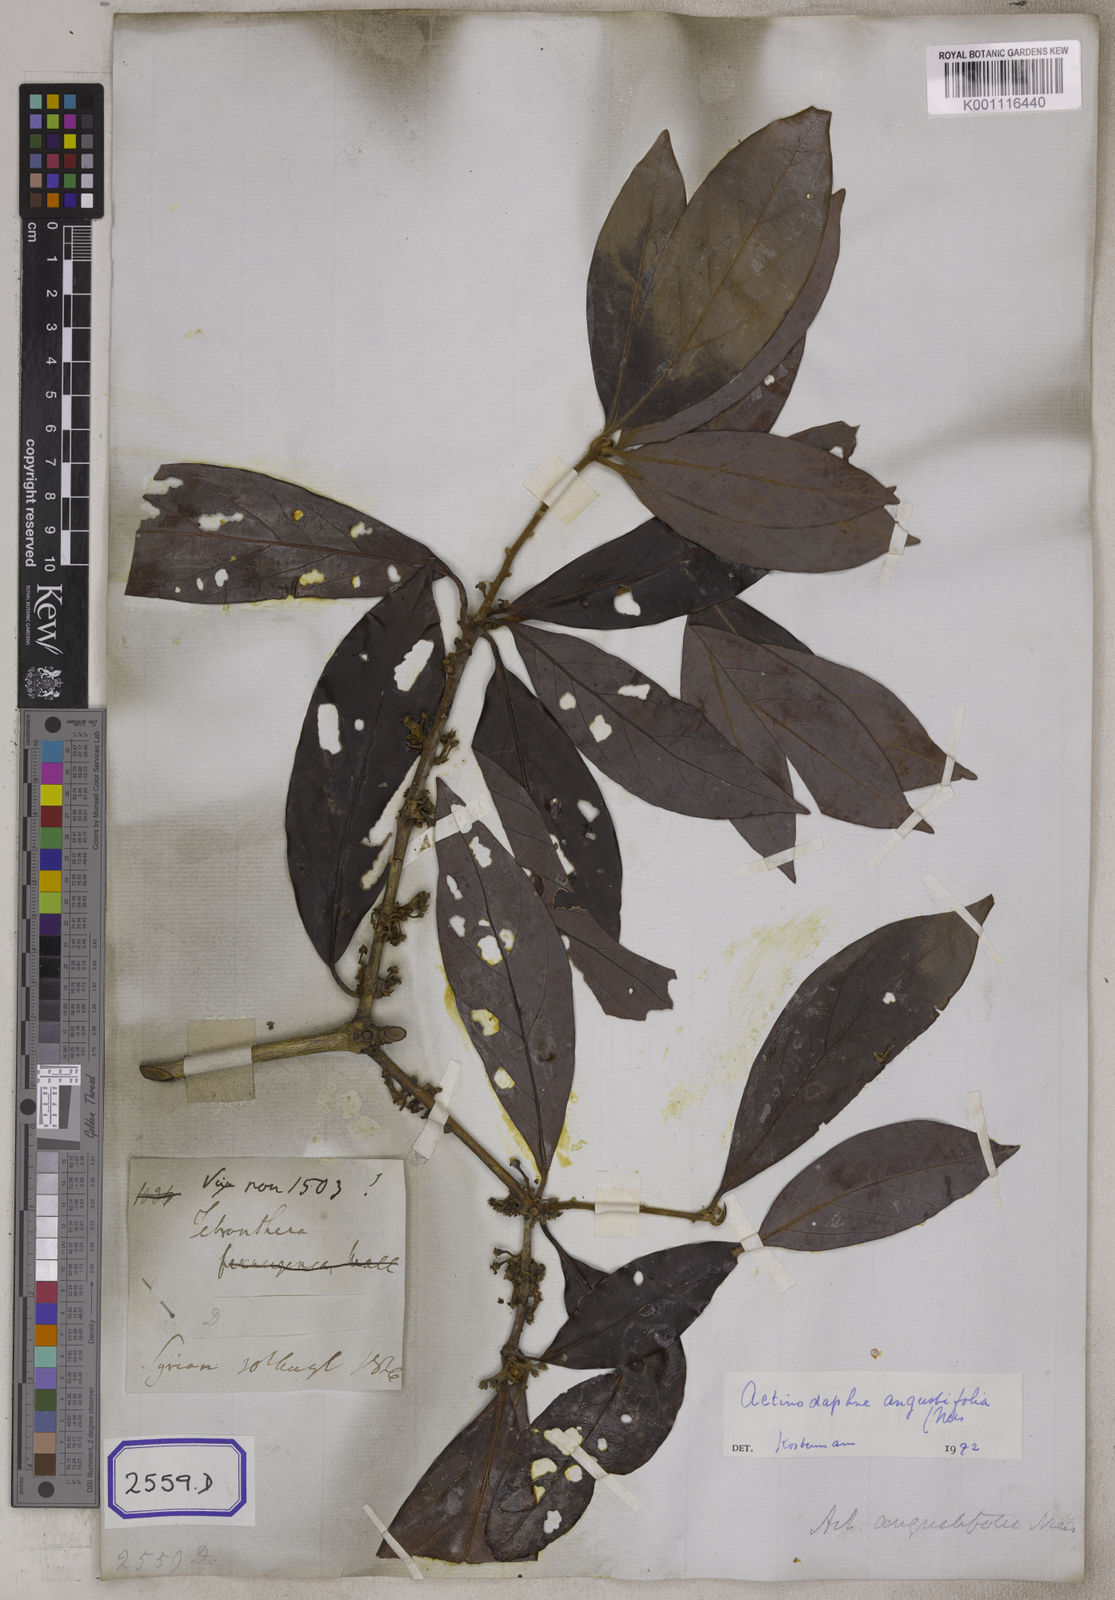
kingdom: Plantae
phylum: Tracheophyta
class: Magnoliopsida
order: Laurales
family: Lauraceae
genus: Actinodaphne
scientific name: Actinodaphne angustifolia
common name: Pisatree
